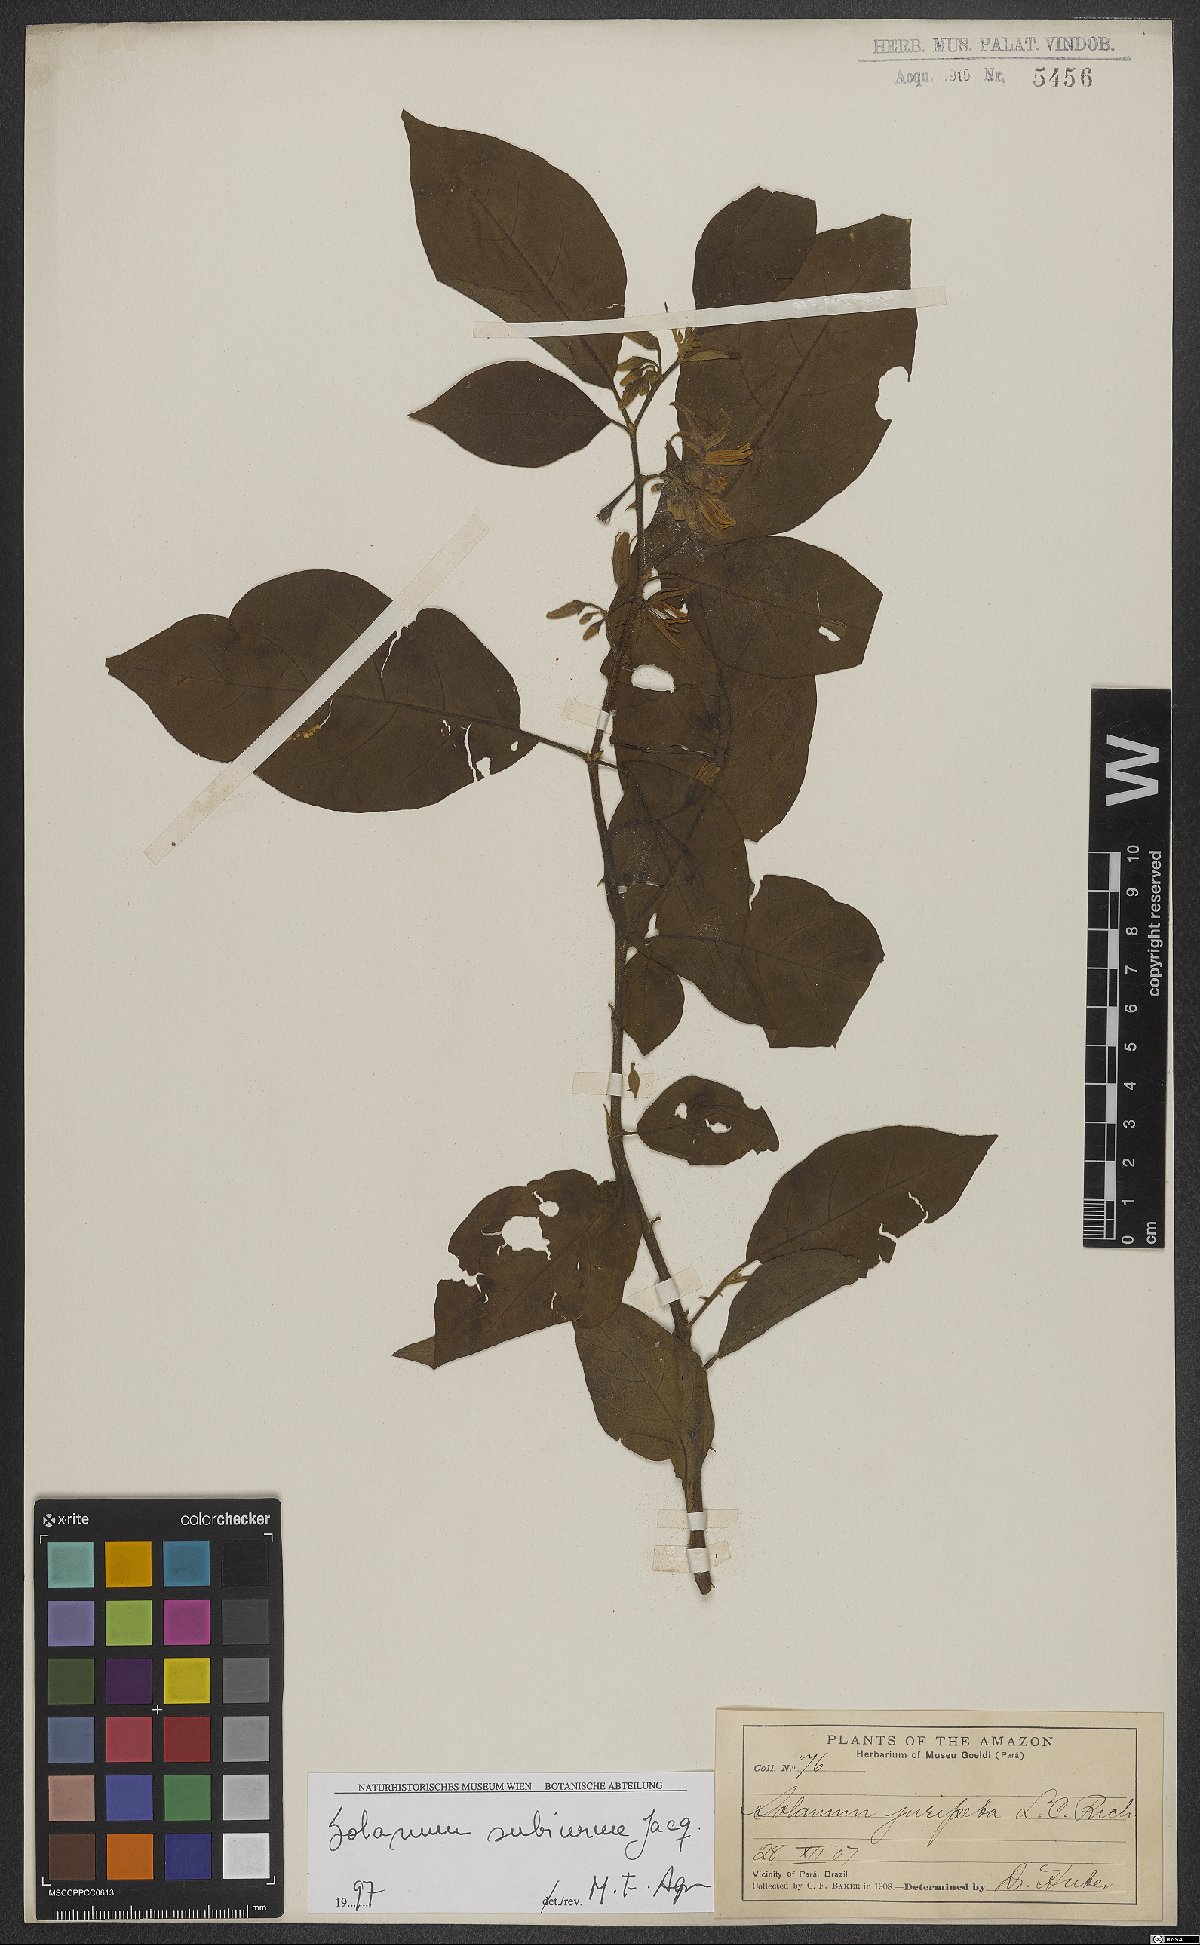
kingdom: Plantae
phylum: Tracheophyta
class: Magnoliopsida
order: Solanales
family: Solanaceae
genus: Solanum
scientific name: Solanum subinerme
